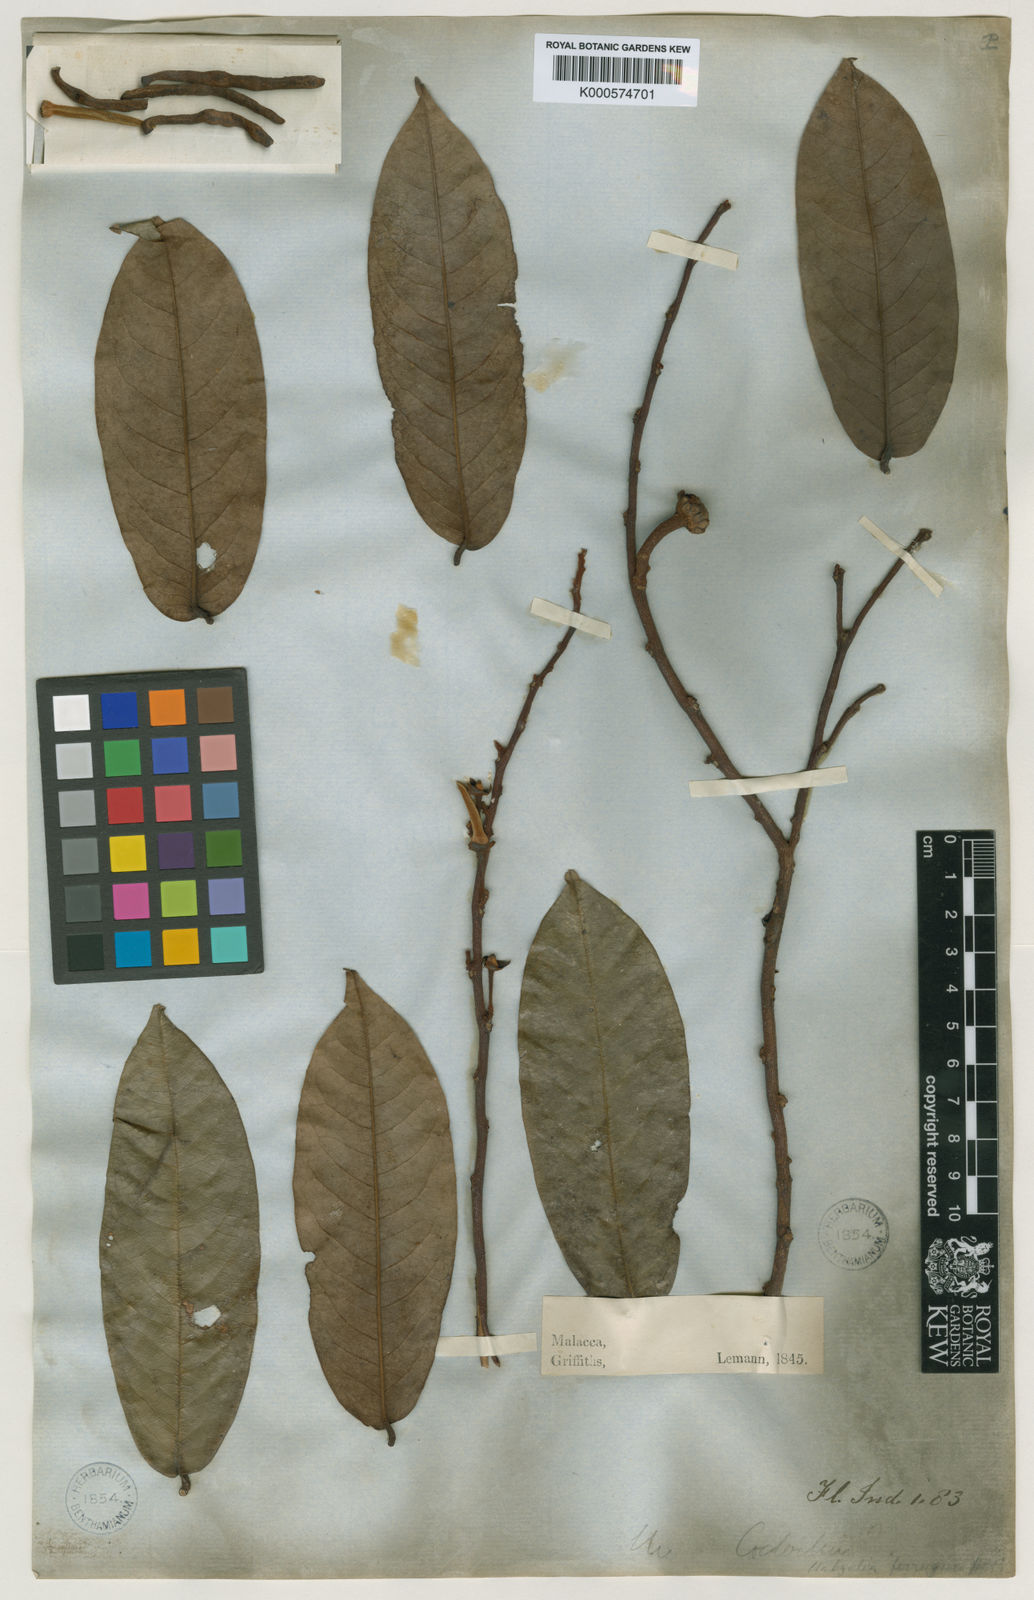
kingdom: Plantae
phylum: Tracheophyta
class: Magnoliopsida
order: Magnoliales
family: Annonaceae
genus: Xylopia
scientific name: Xylopia ferruginea
